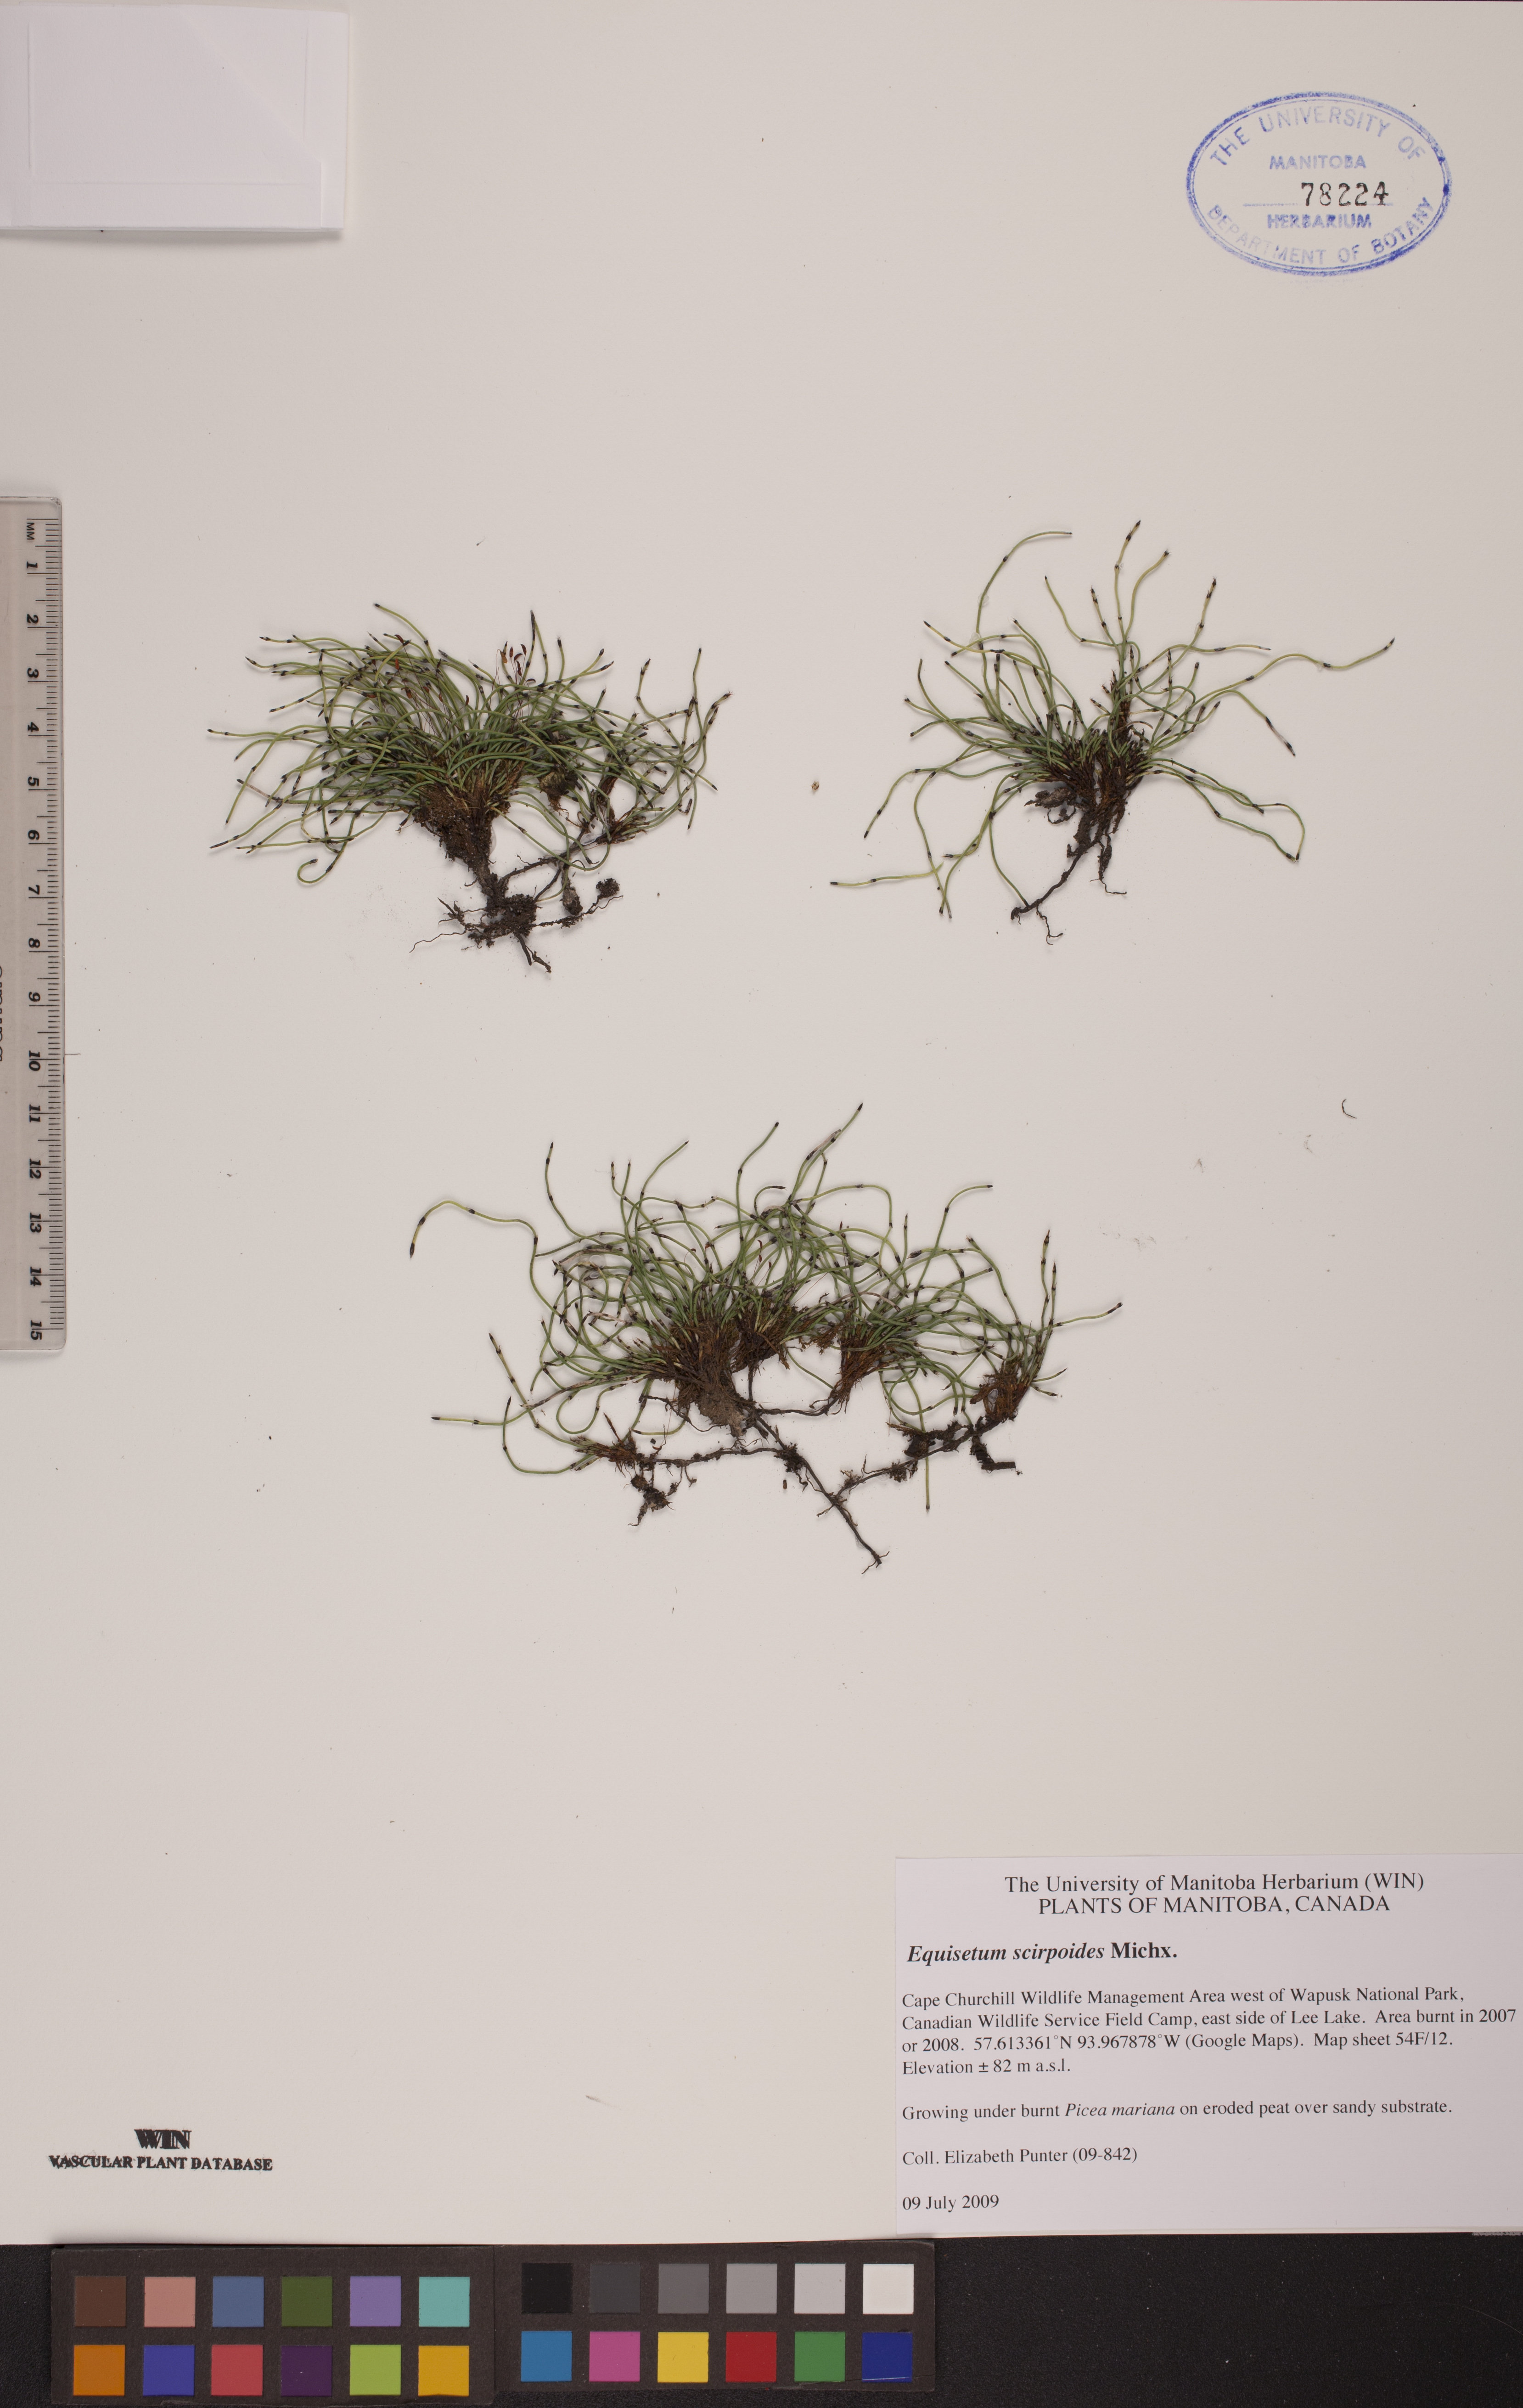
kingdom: Plantae
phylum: Tracheophyta
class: Polypodiopsida
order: Equisetales
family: Equisetaceae
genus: Equisetum
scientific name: Equisetum scirpoides
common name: Delicate horsetail
